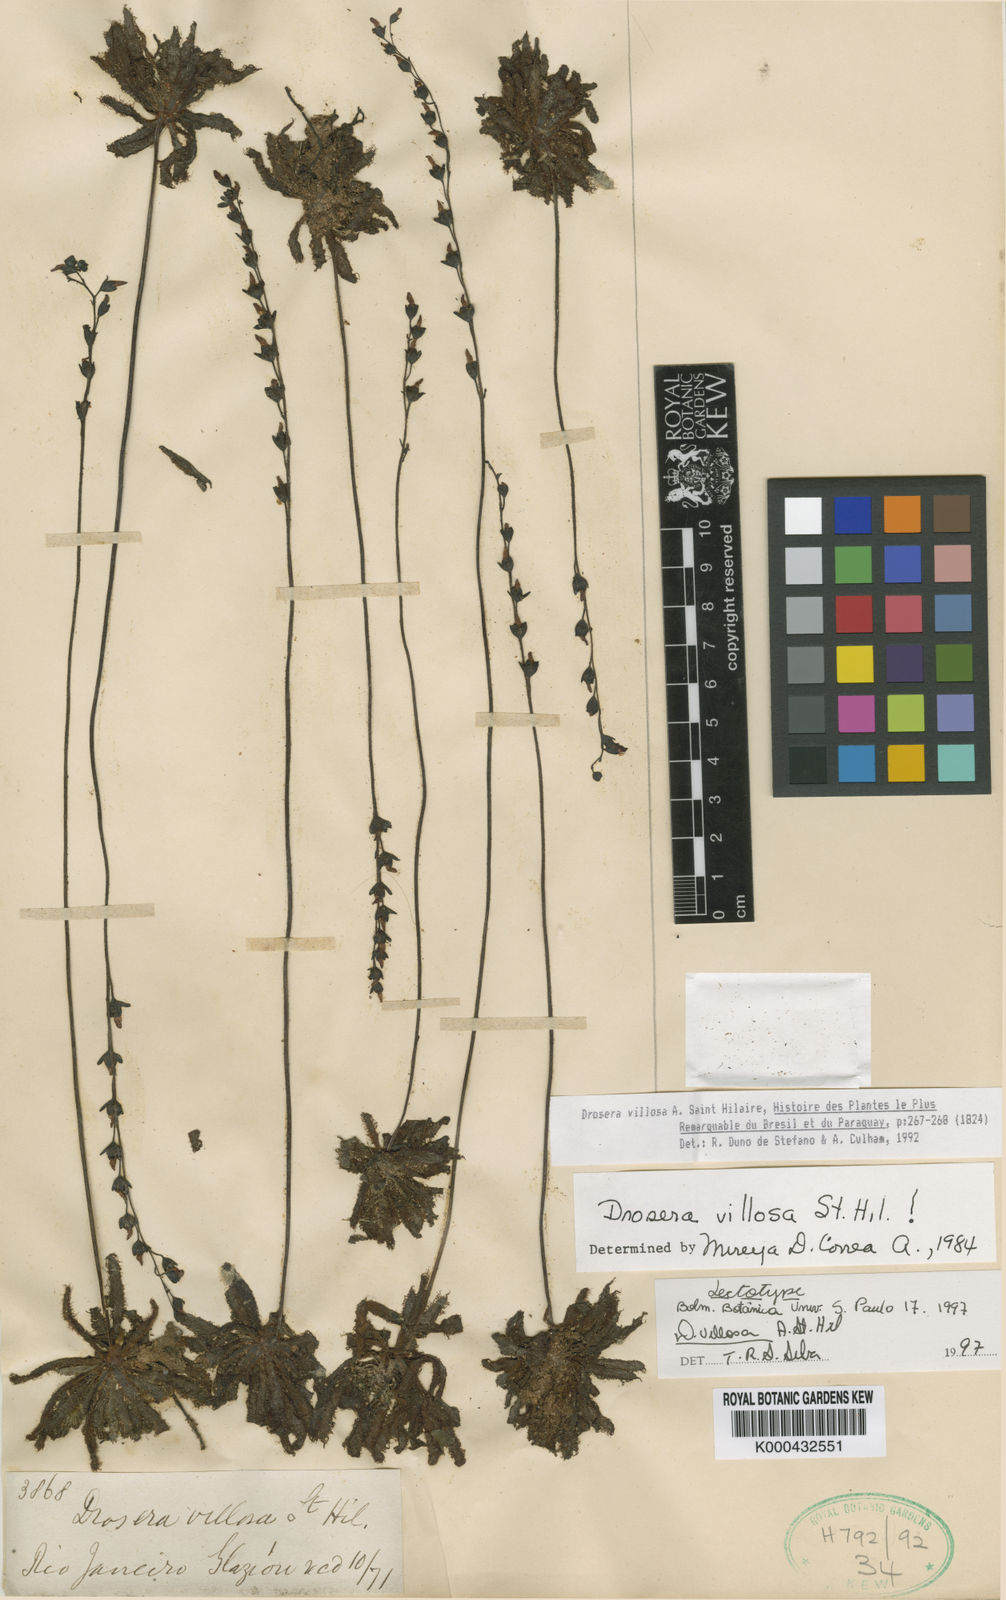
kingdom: Plantae
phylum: Tracheophyta
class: Magnoliopsida
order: Caryophyllales
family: Droseraceae
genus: Drosera
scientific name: Drosera latifolia
